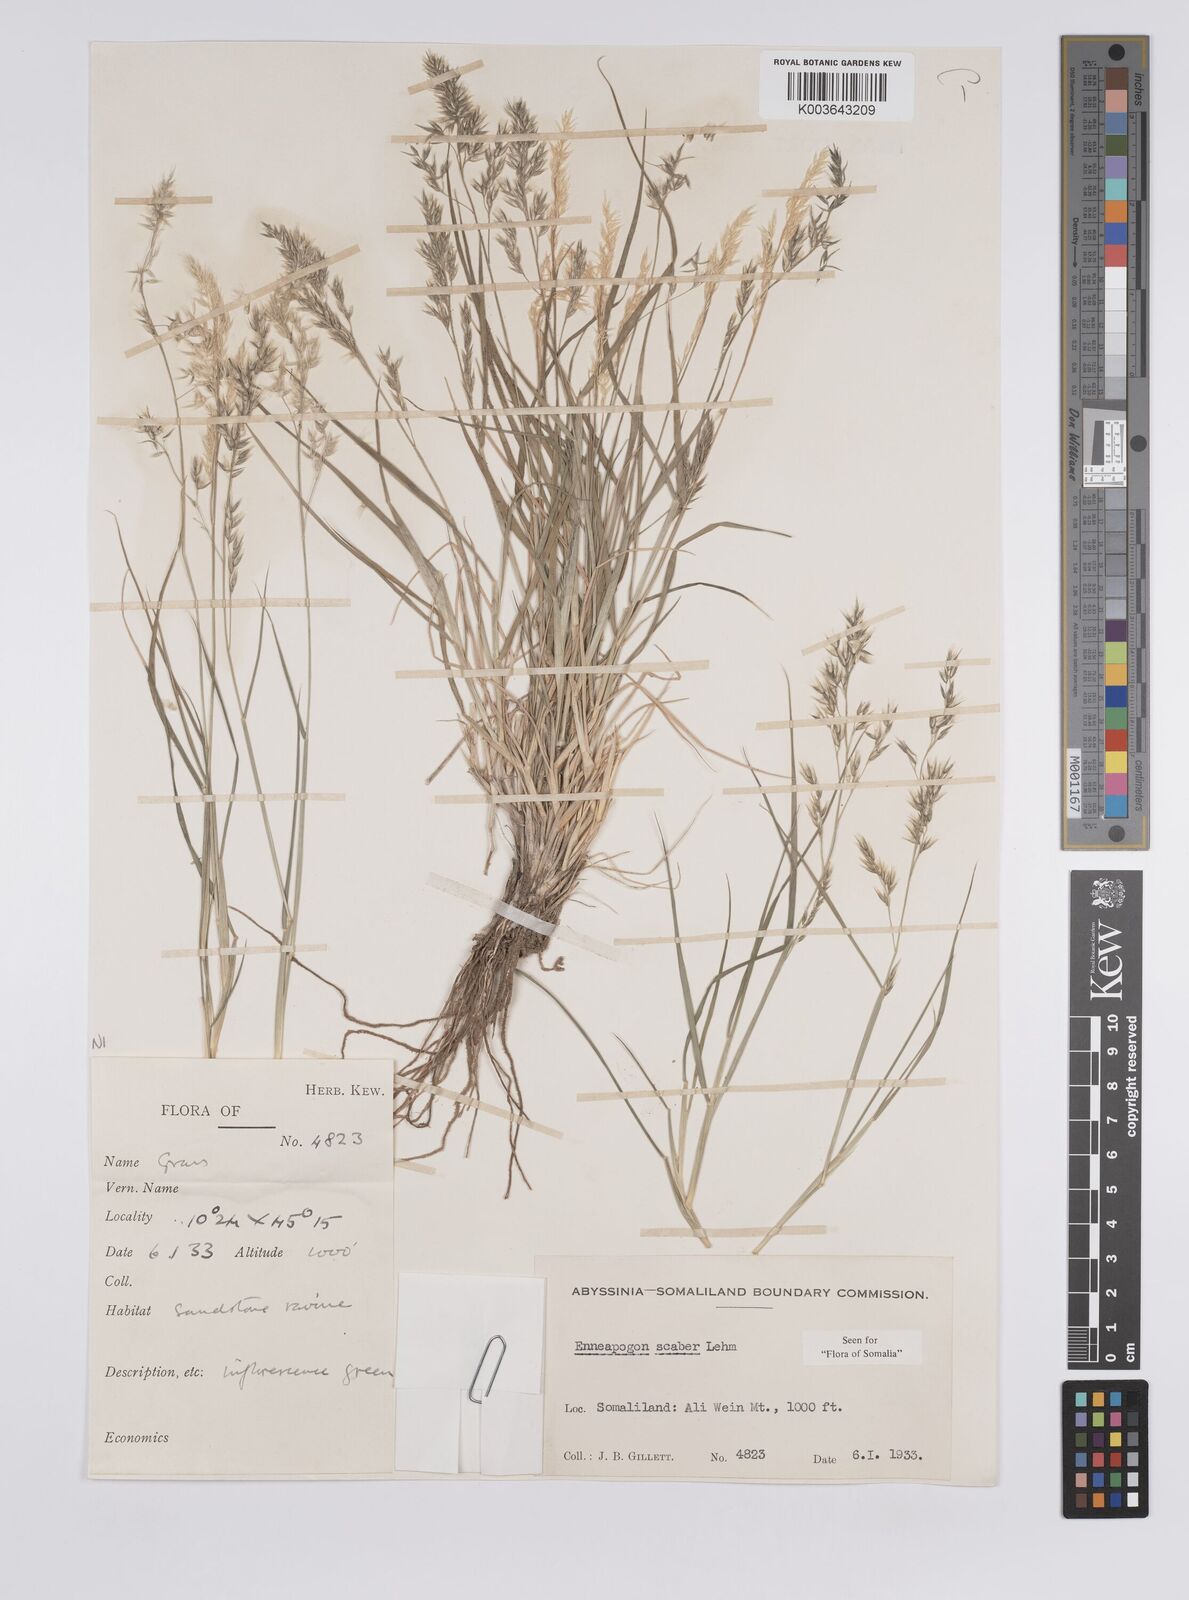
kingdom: Plantae
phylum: Tracheophyta
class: Liliopsida
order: Poales
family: Poaceae
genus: Enneapogon
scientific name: Enneapogon scaber
